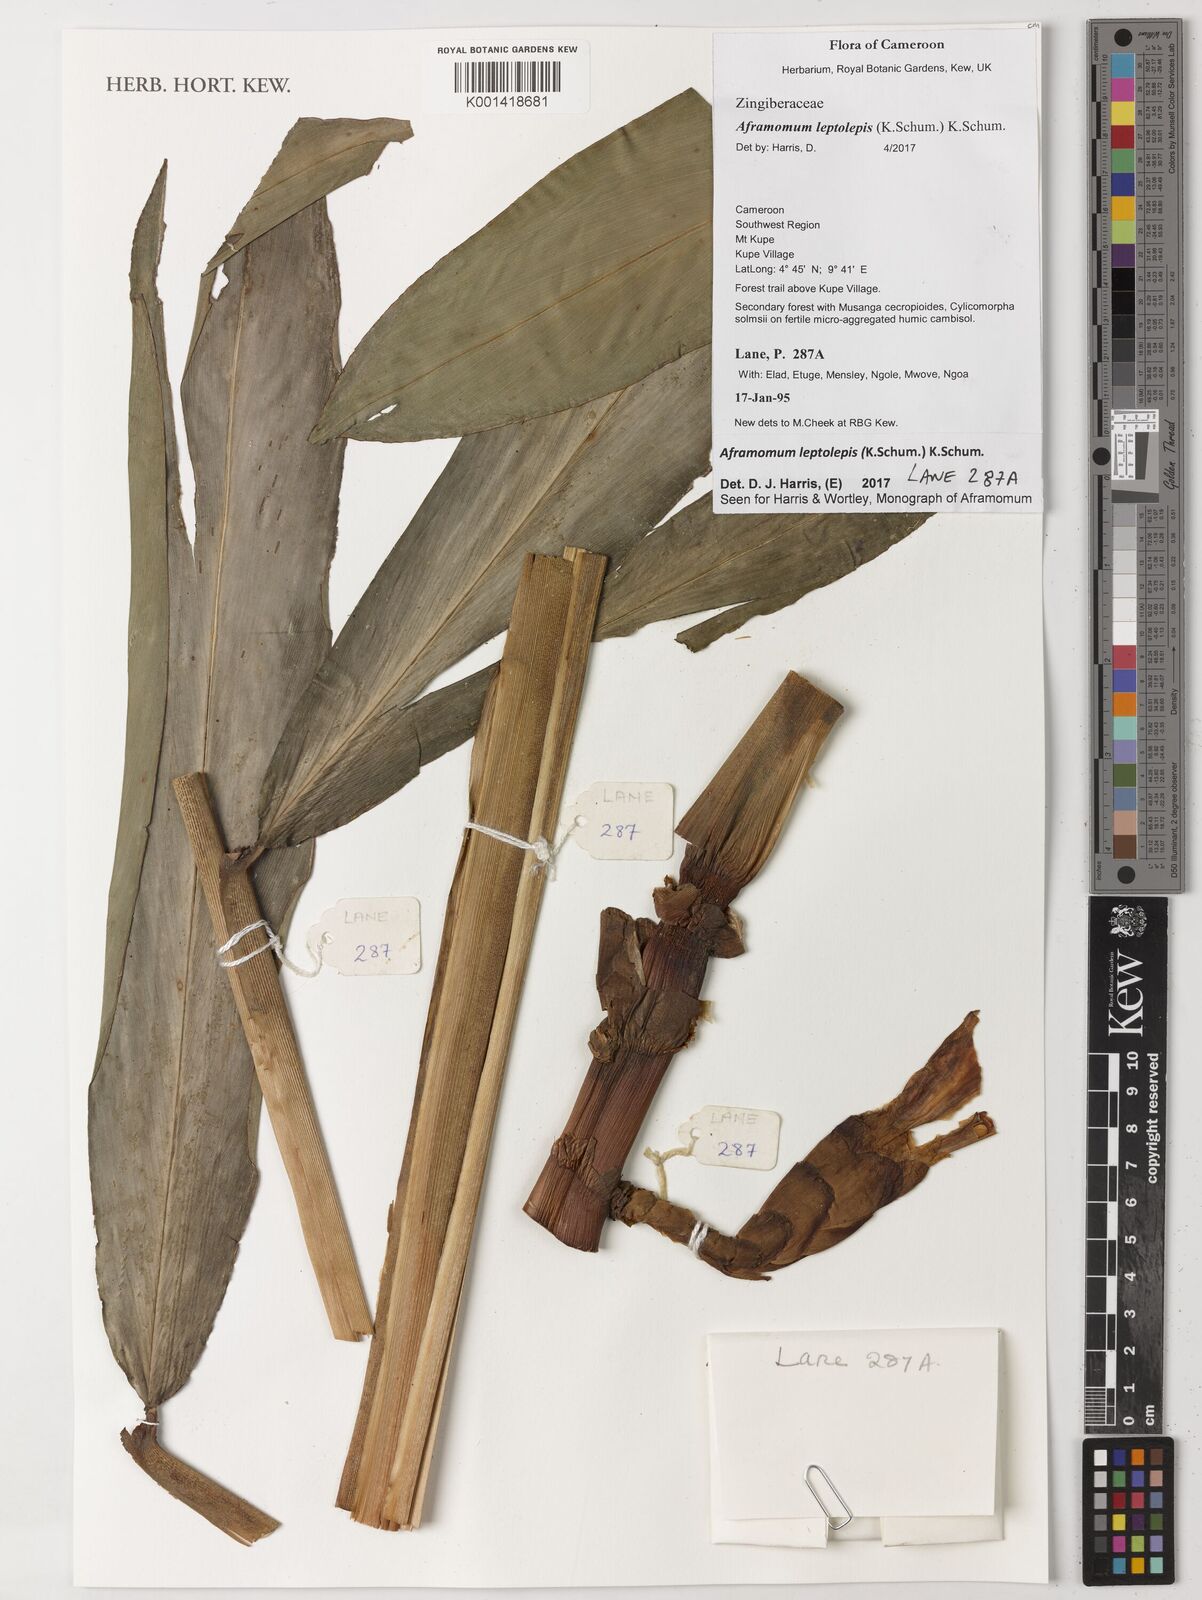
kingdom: Plantae
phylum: Tracheophyta
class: Liliopsida
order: Zingiberales
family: Zingiberaceae
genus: Aframomum
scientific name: Aframomum leptolepis
